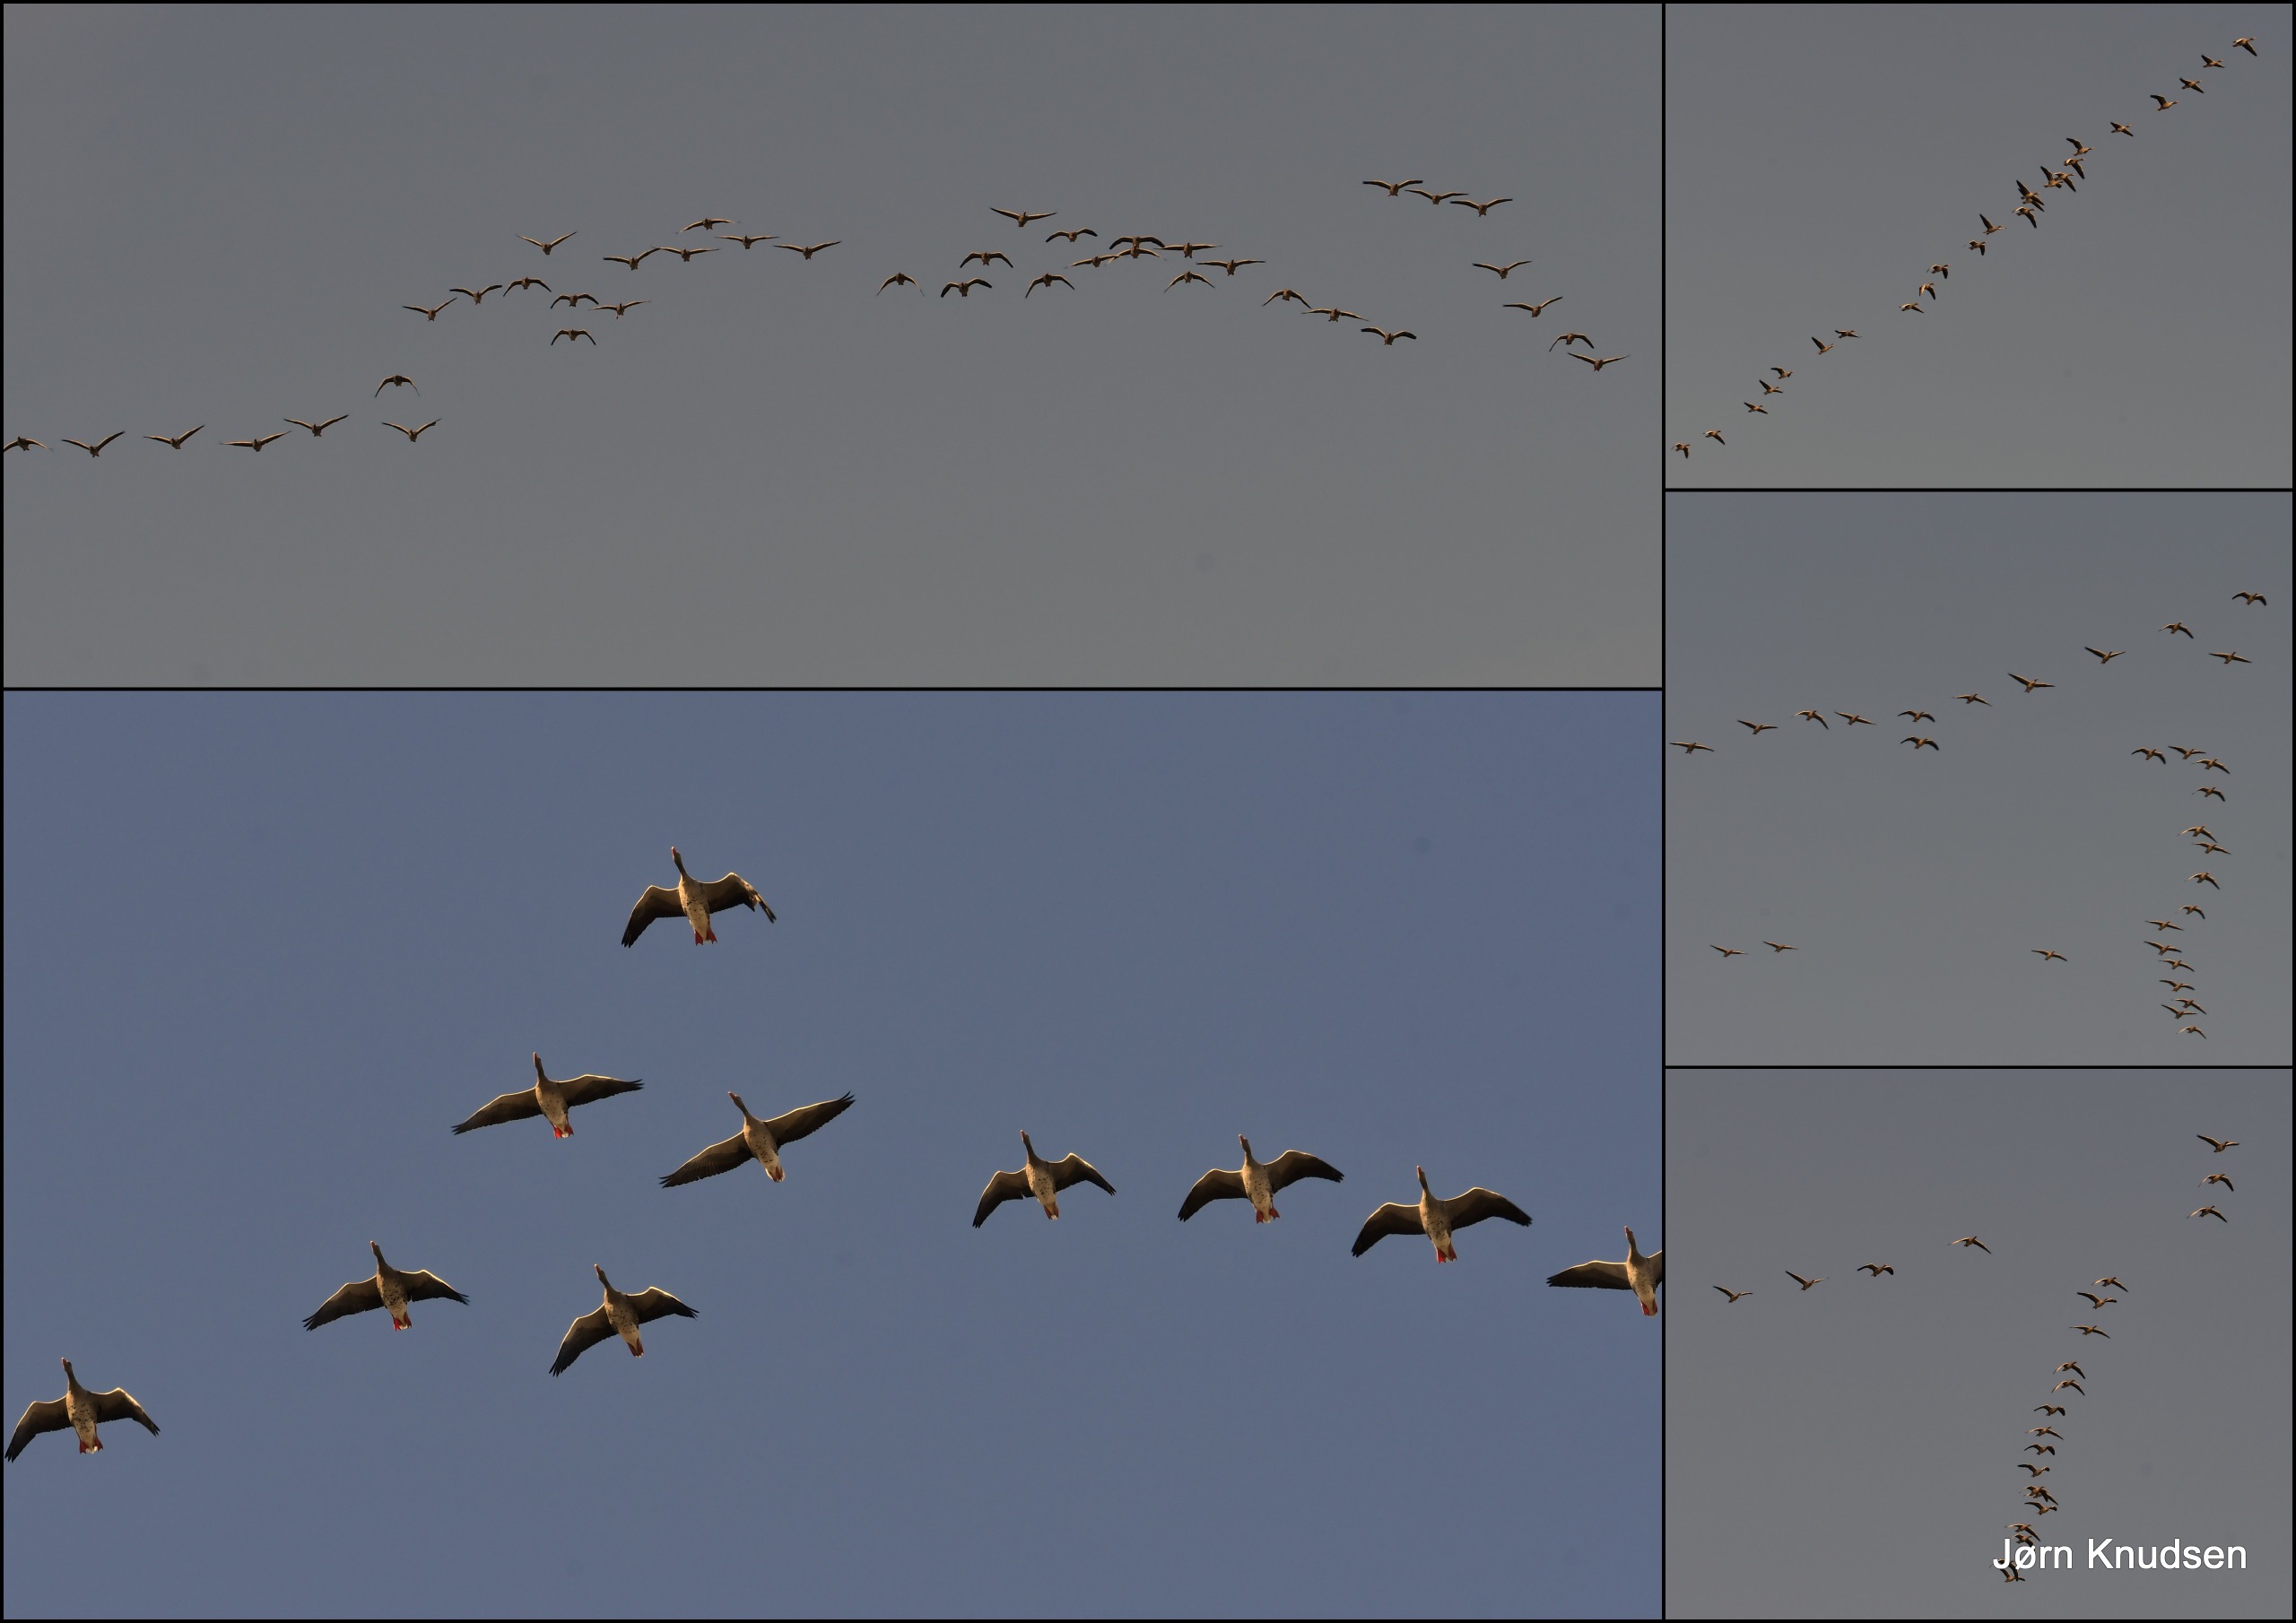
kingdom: Animalia
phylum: Chordata
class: Aves
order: Anseriformes
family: Anatidae
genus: Anser
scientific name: Anser anser
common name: Grågås
